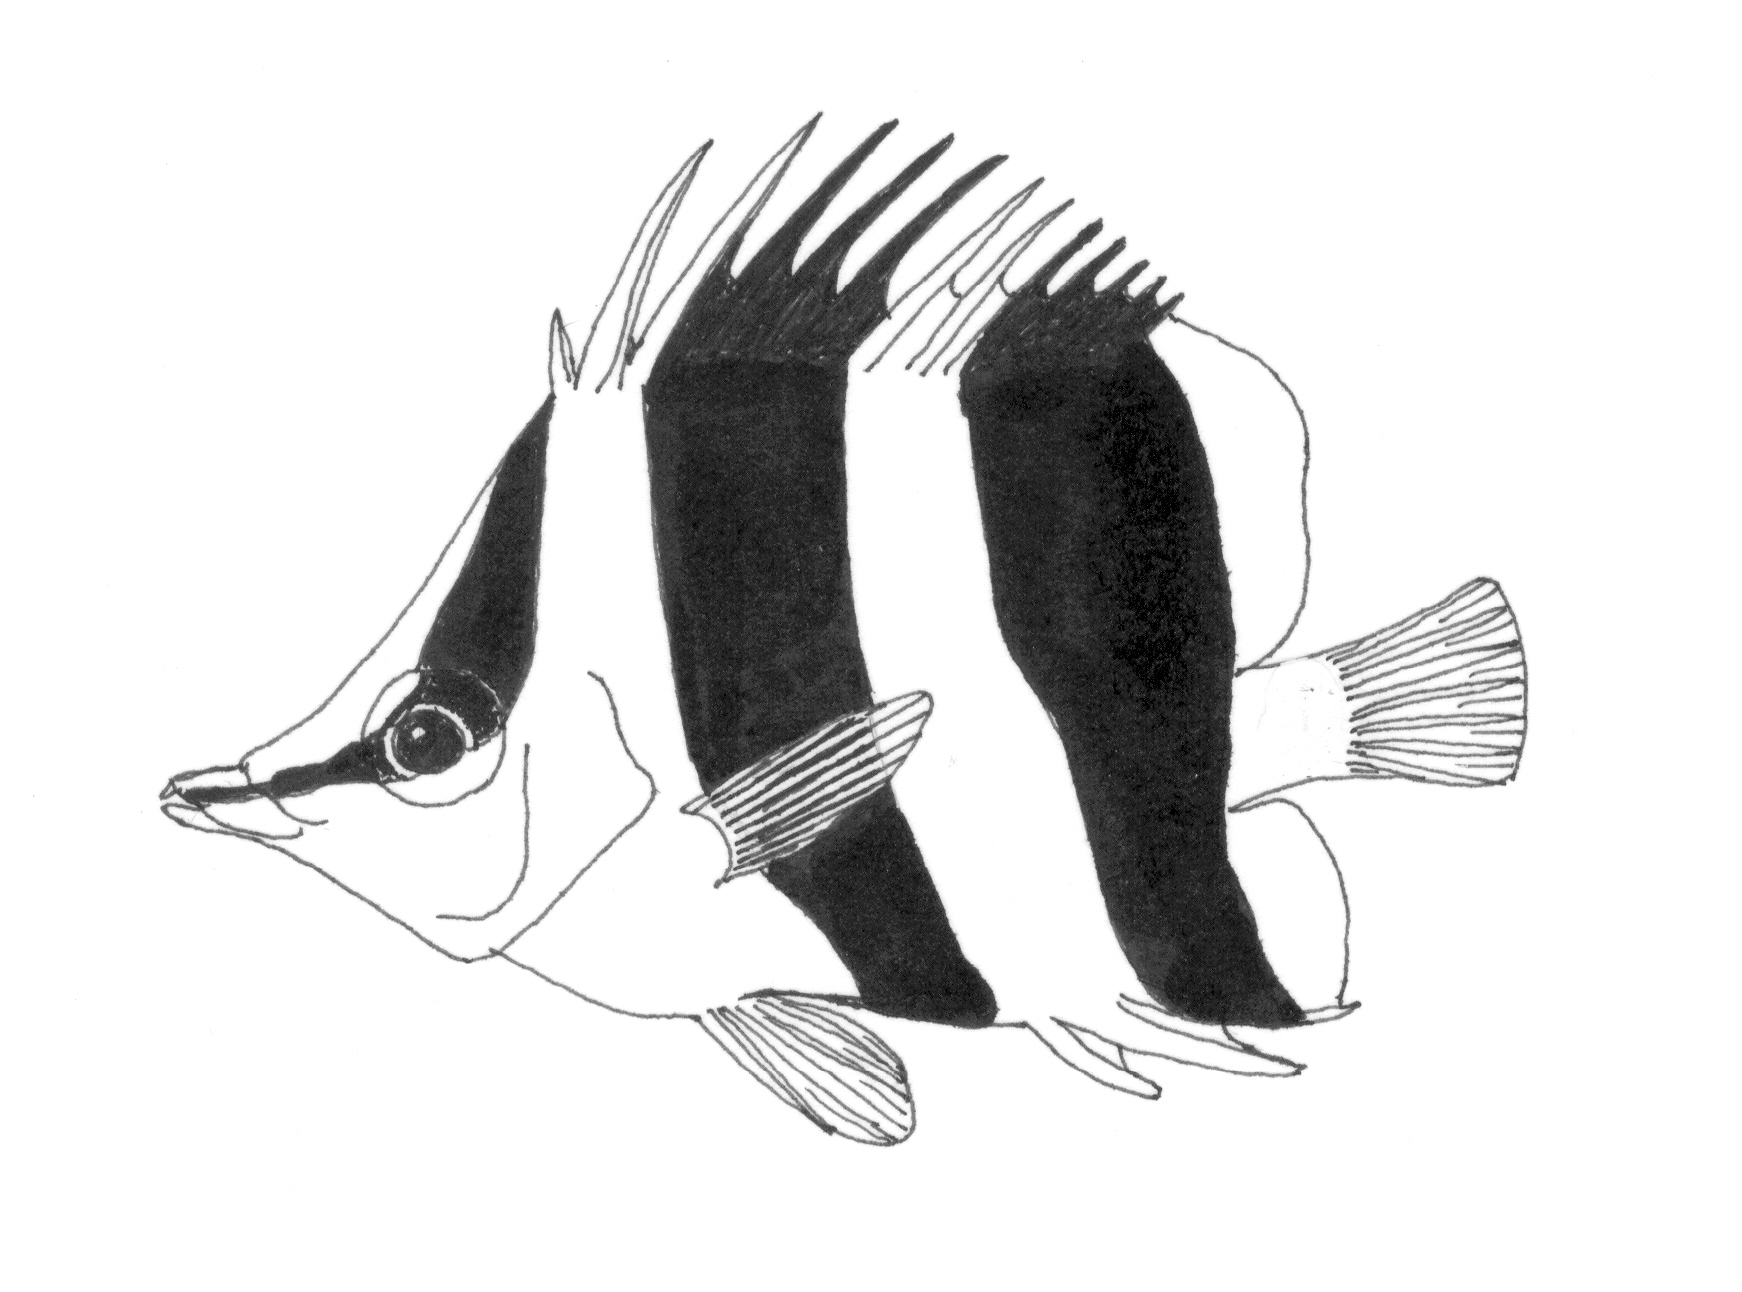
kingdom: Animalia
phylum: Chordata
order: Perciformes
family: Chaetodontidae
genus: Prognathodes
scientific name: Prognathodes guezei
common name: Gueze's butterflyfish
